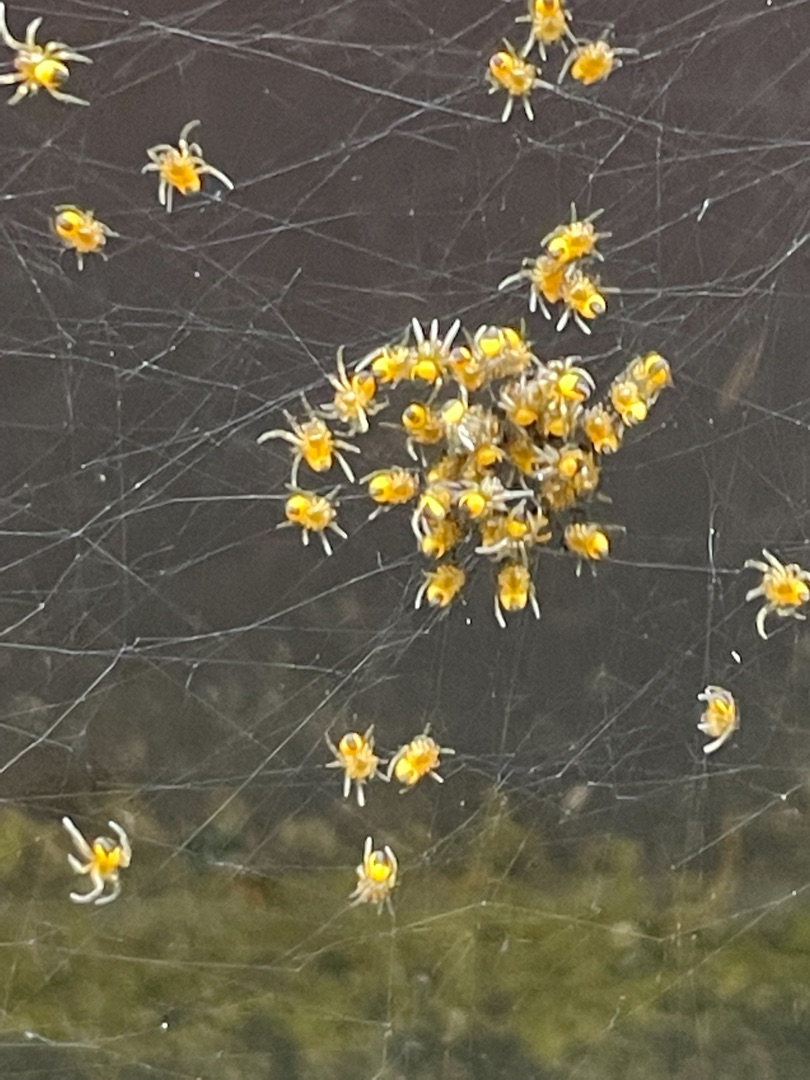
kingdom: Animalia
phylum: Arthropoda
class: Arachnida
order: Araneae
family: Araneidae
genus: Araneus
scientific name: Araneus diadematus
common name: Korsedderkop
